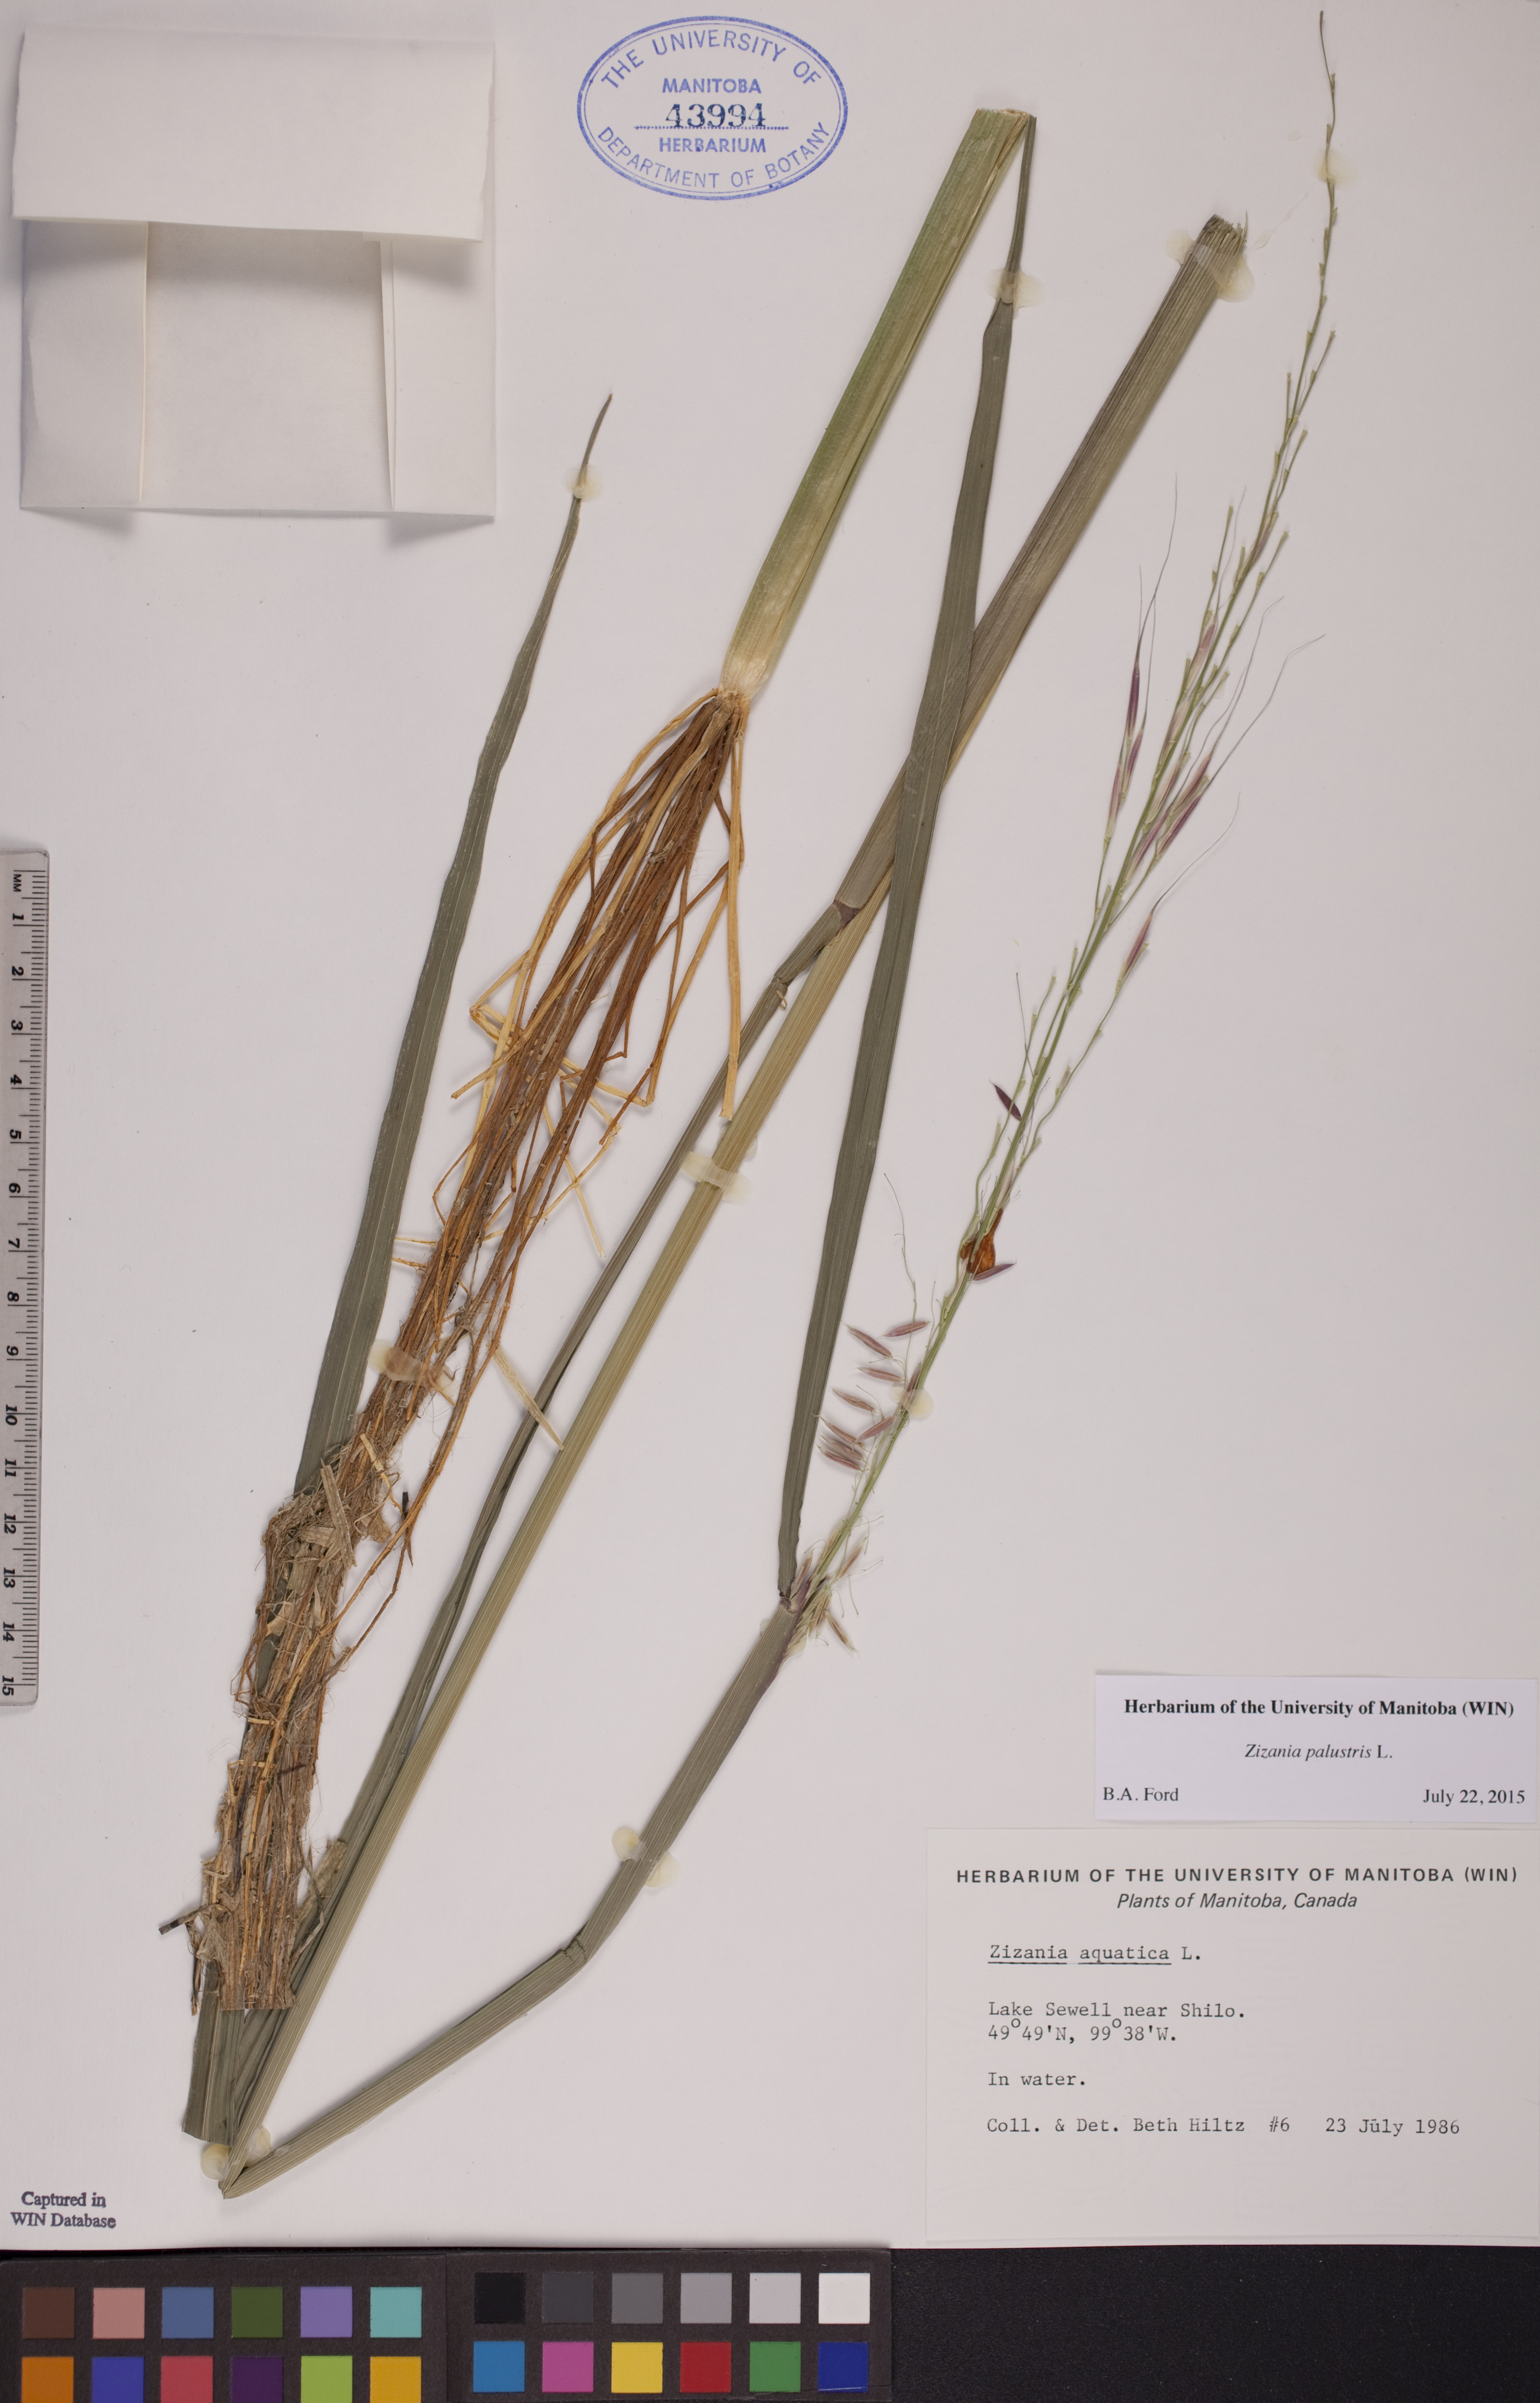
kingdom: Plantae
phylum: Tracheophyta
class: Liliopsida
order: Poales
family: Poaceae
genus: Zizania
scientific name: Zizania palustris
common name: Northern wild rice
